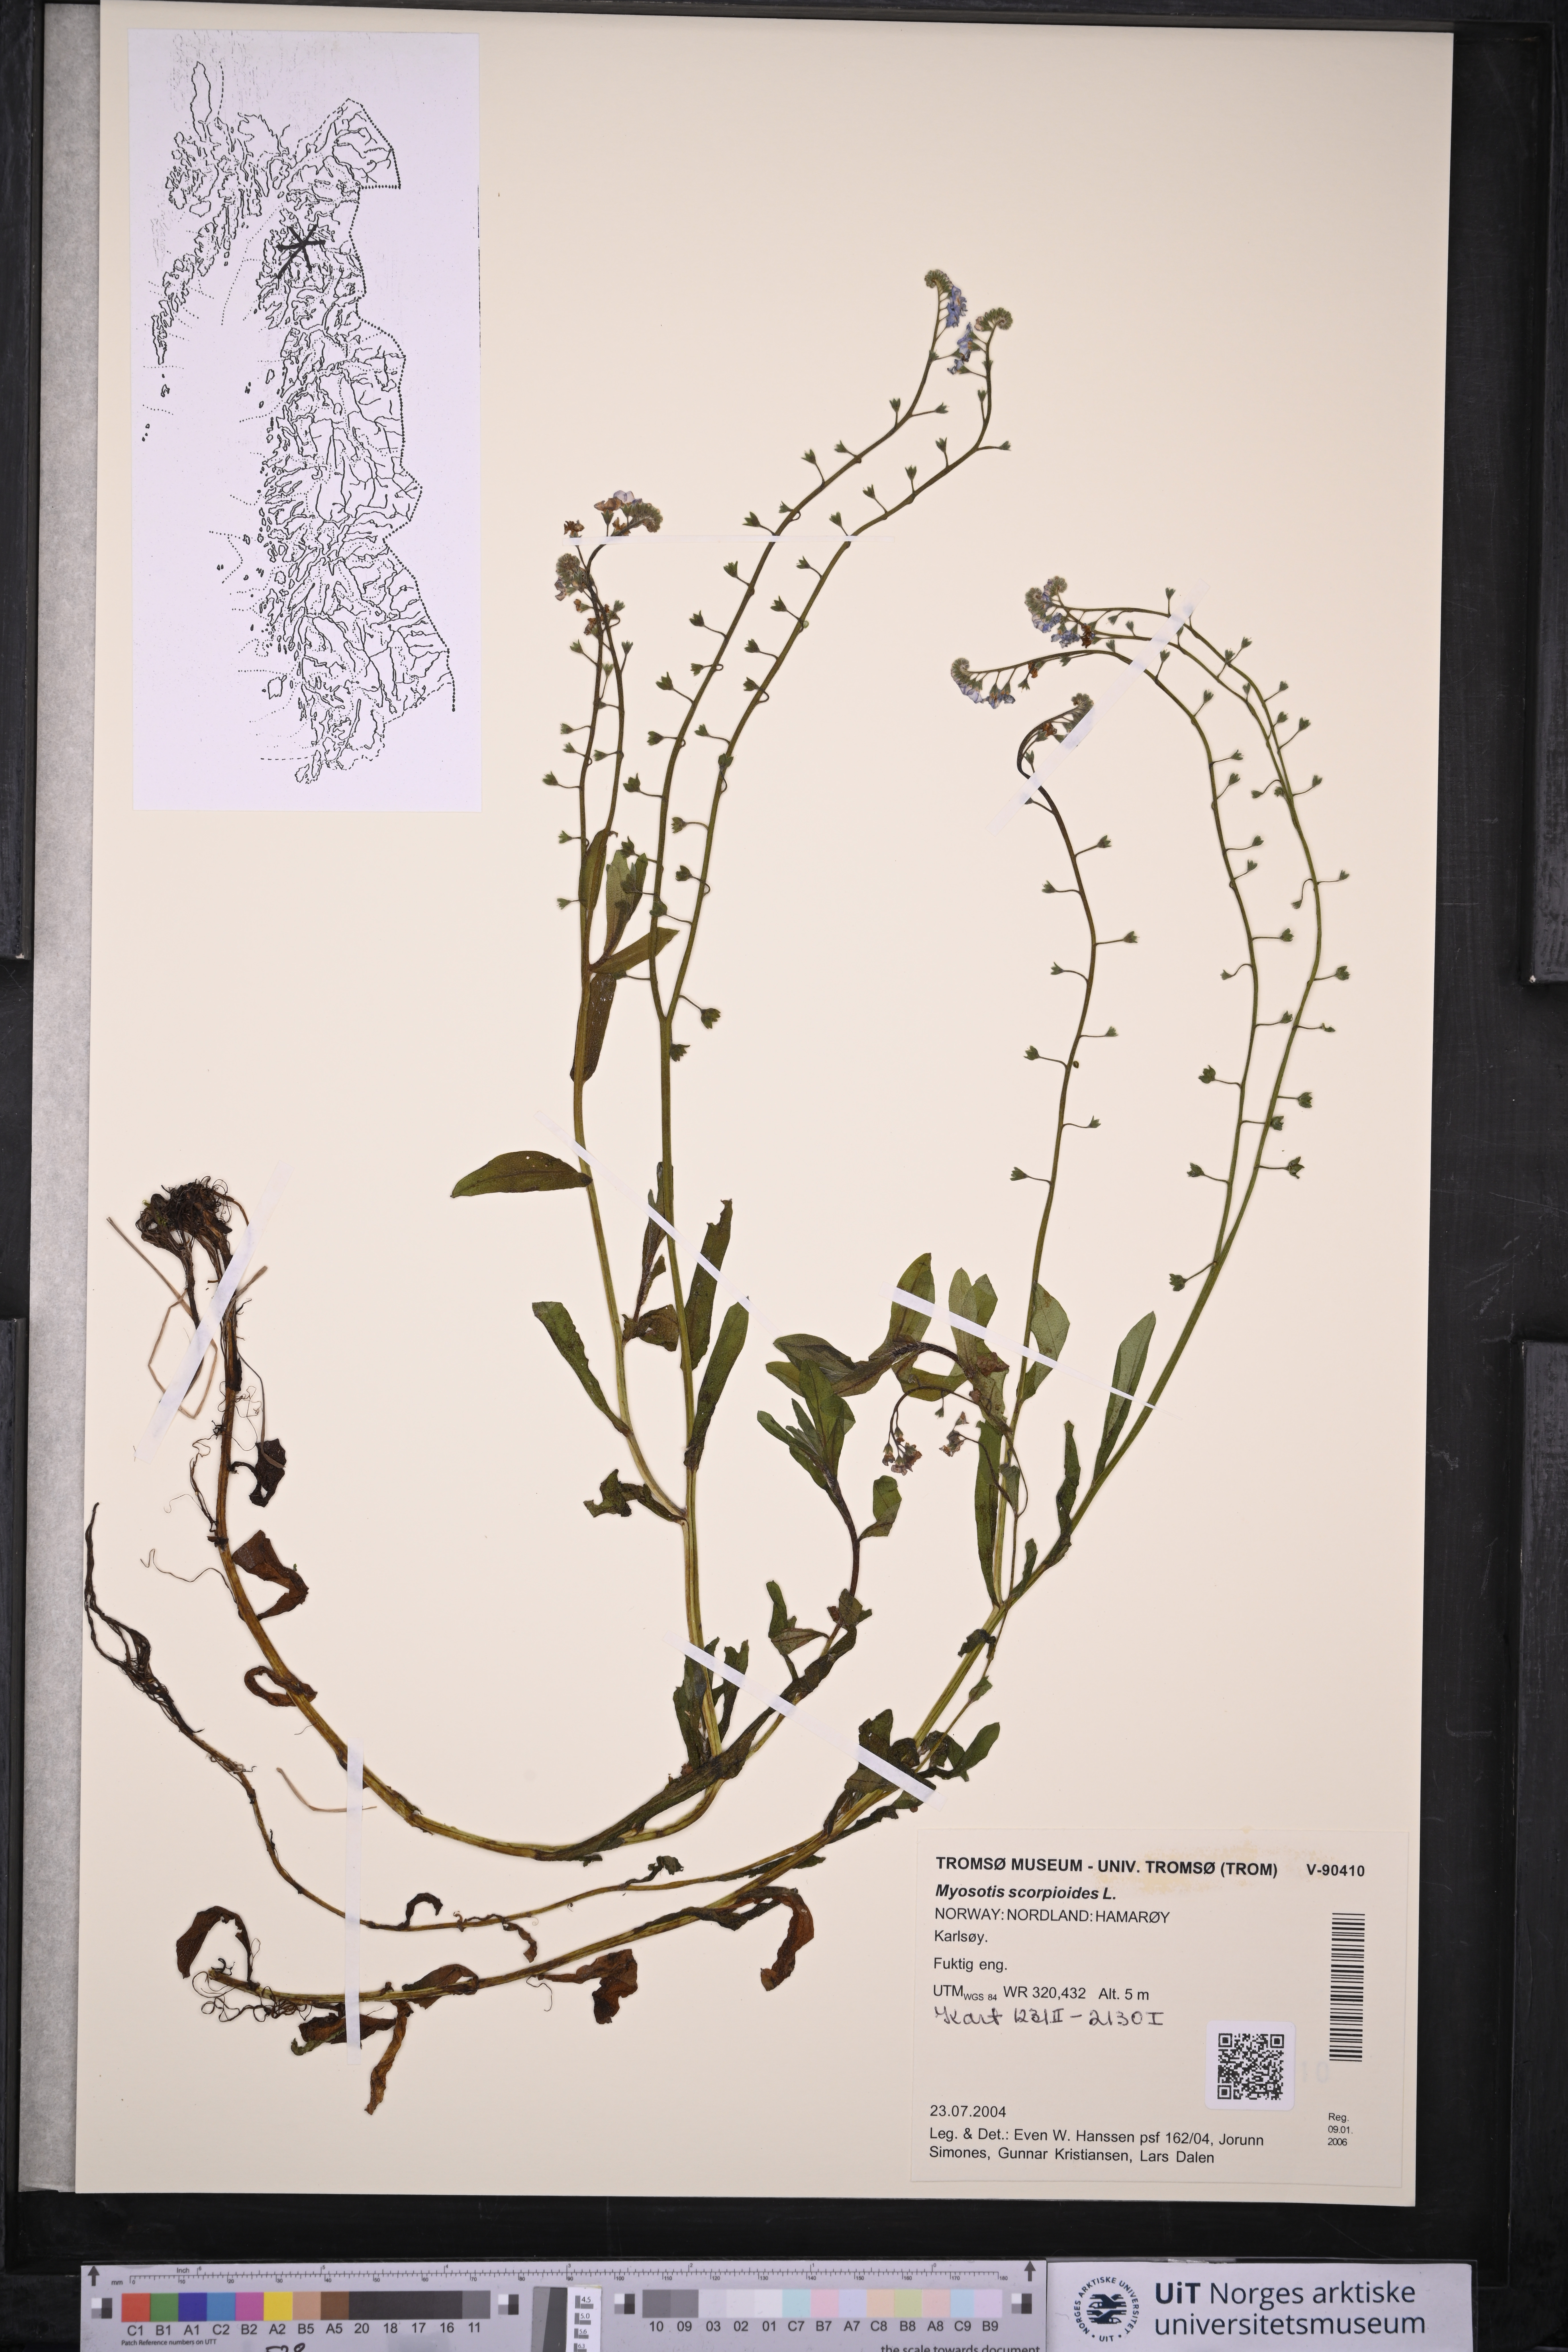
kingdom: Plantae
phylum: Tracheophyta
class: Magnoliopsida
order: Boraginales
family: Boraginaceae
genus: Myosotis
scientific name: Myosotis scorpioides
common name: Water forget-me-not
